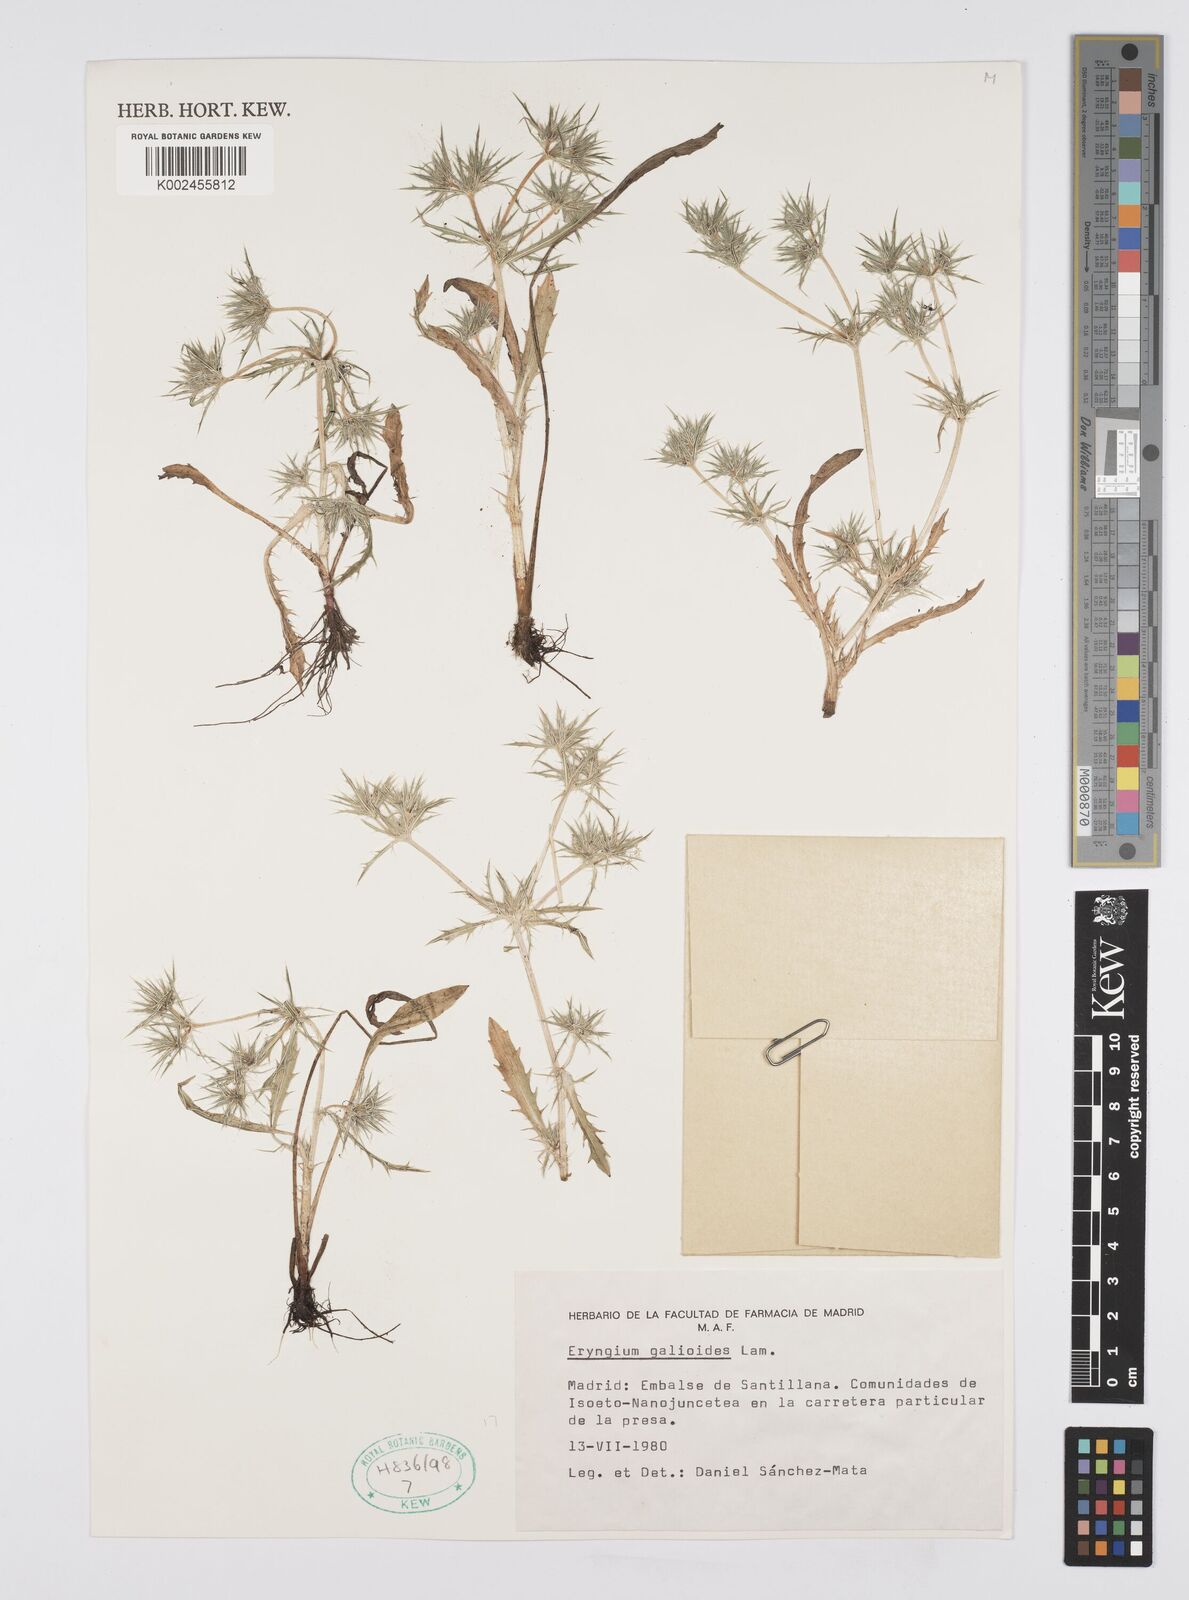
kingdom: Plantae
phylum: Tracheophyta
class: Magnoliopsida
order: Apiales
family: Apiaceae
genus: Eryngium
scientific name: Eryngium galioides
